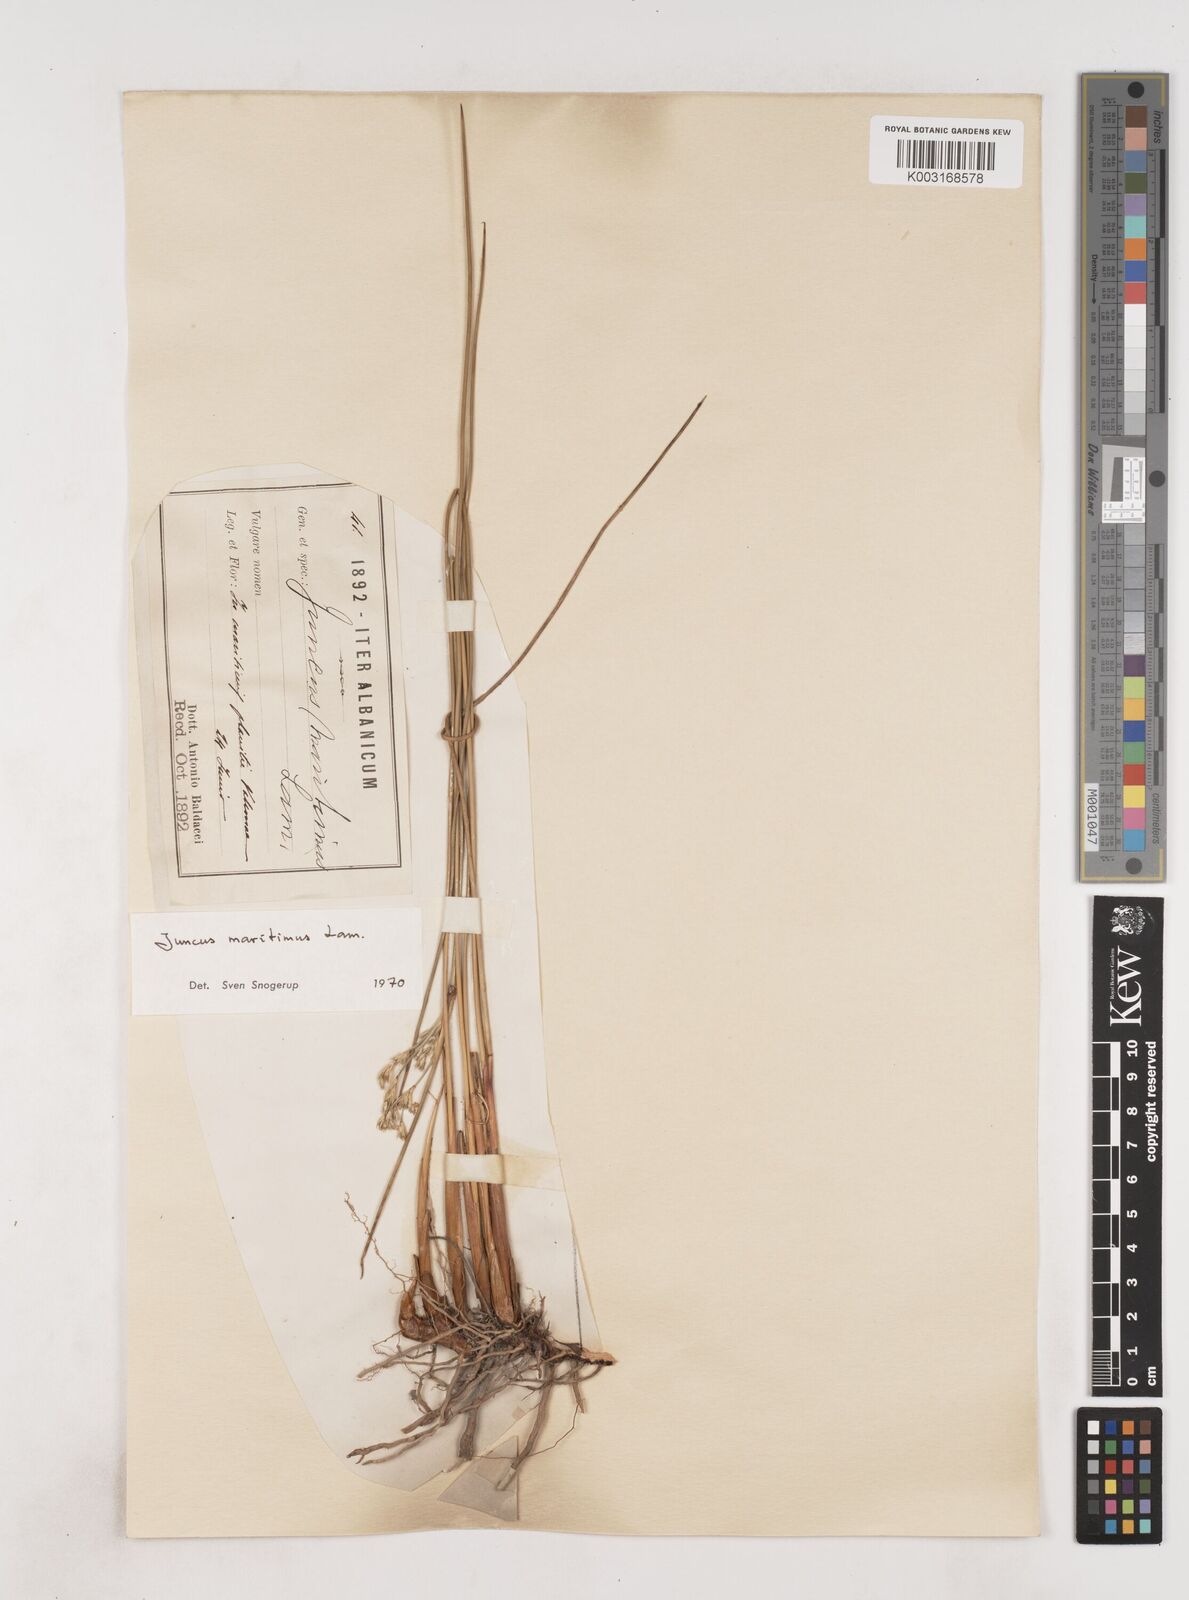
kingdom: Plantae
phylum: Tracheophyta
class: Liliopsida
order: Poales
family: Juncaceae
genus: Juncus
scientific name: Juncus maritimus
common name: Sea rush
